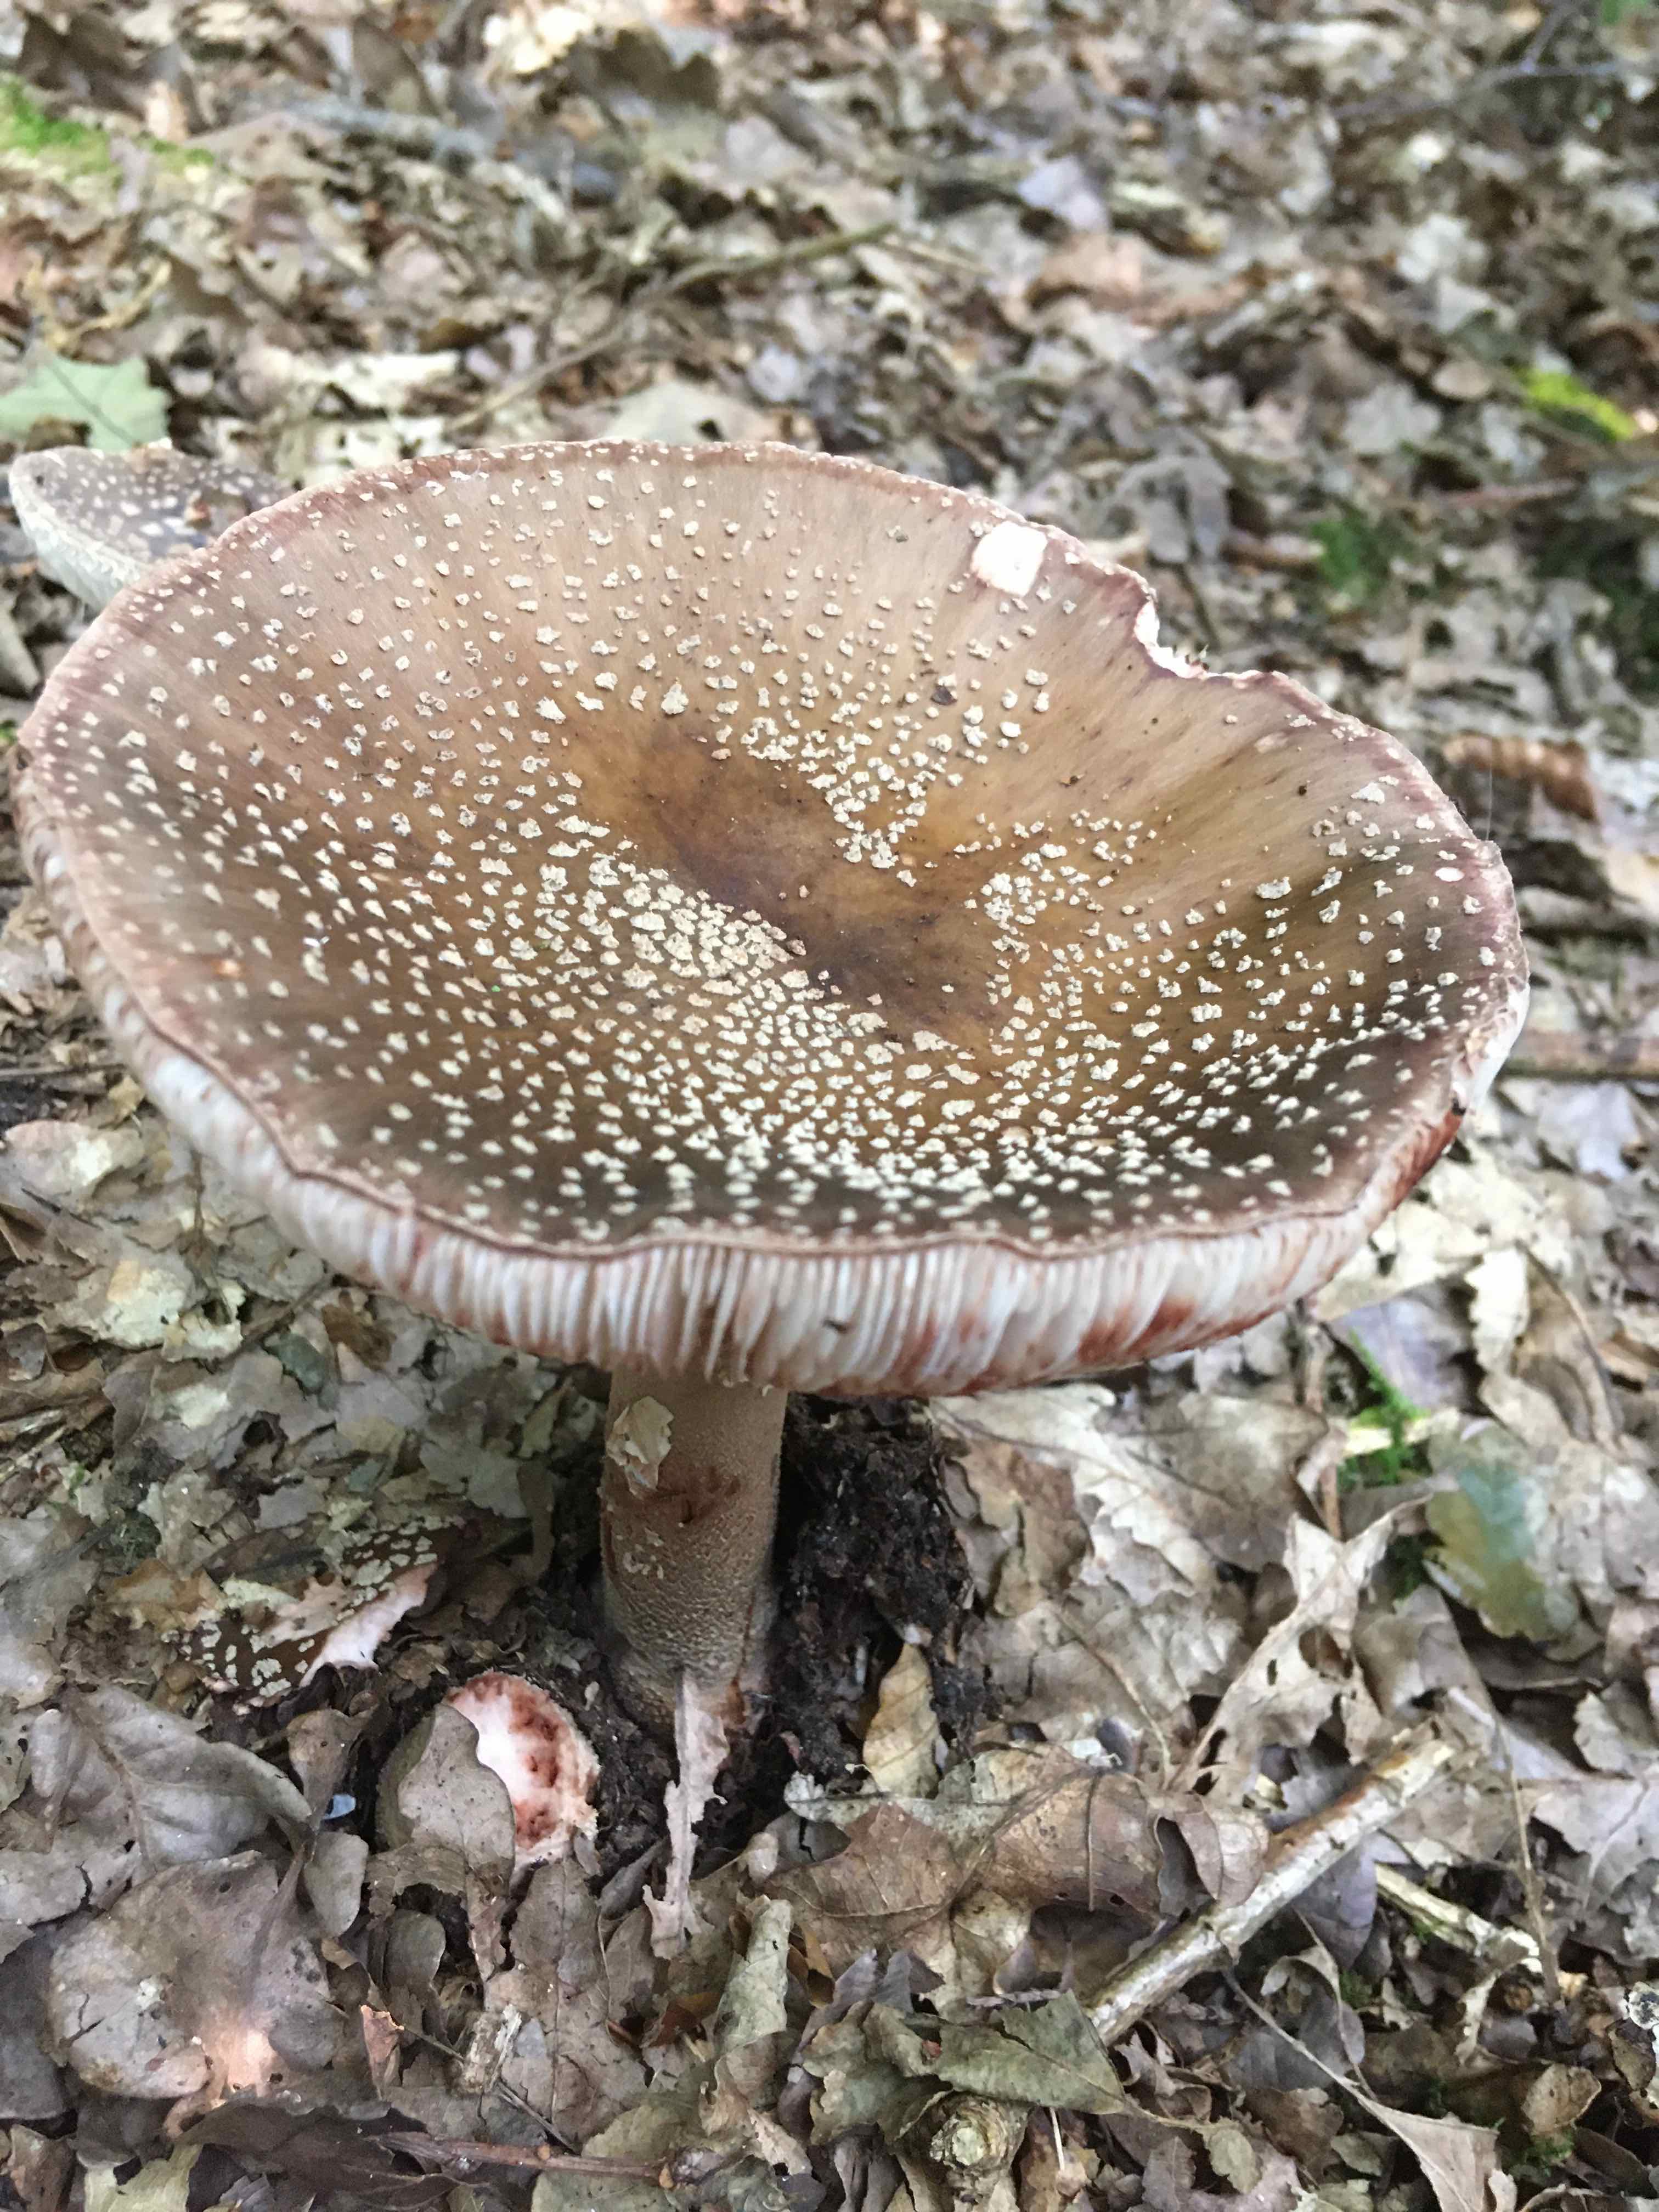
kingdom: Fungi
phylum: Basidiomycota
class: Agaricomycetes
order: Agaricales
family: Amanitaceae
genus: Amanita
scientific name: Amanita rubescens
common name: rødmende fluesvamp
